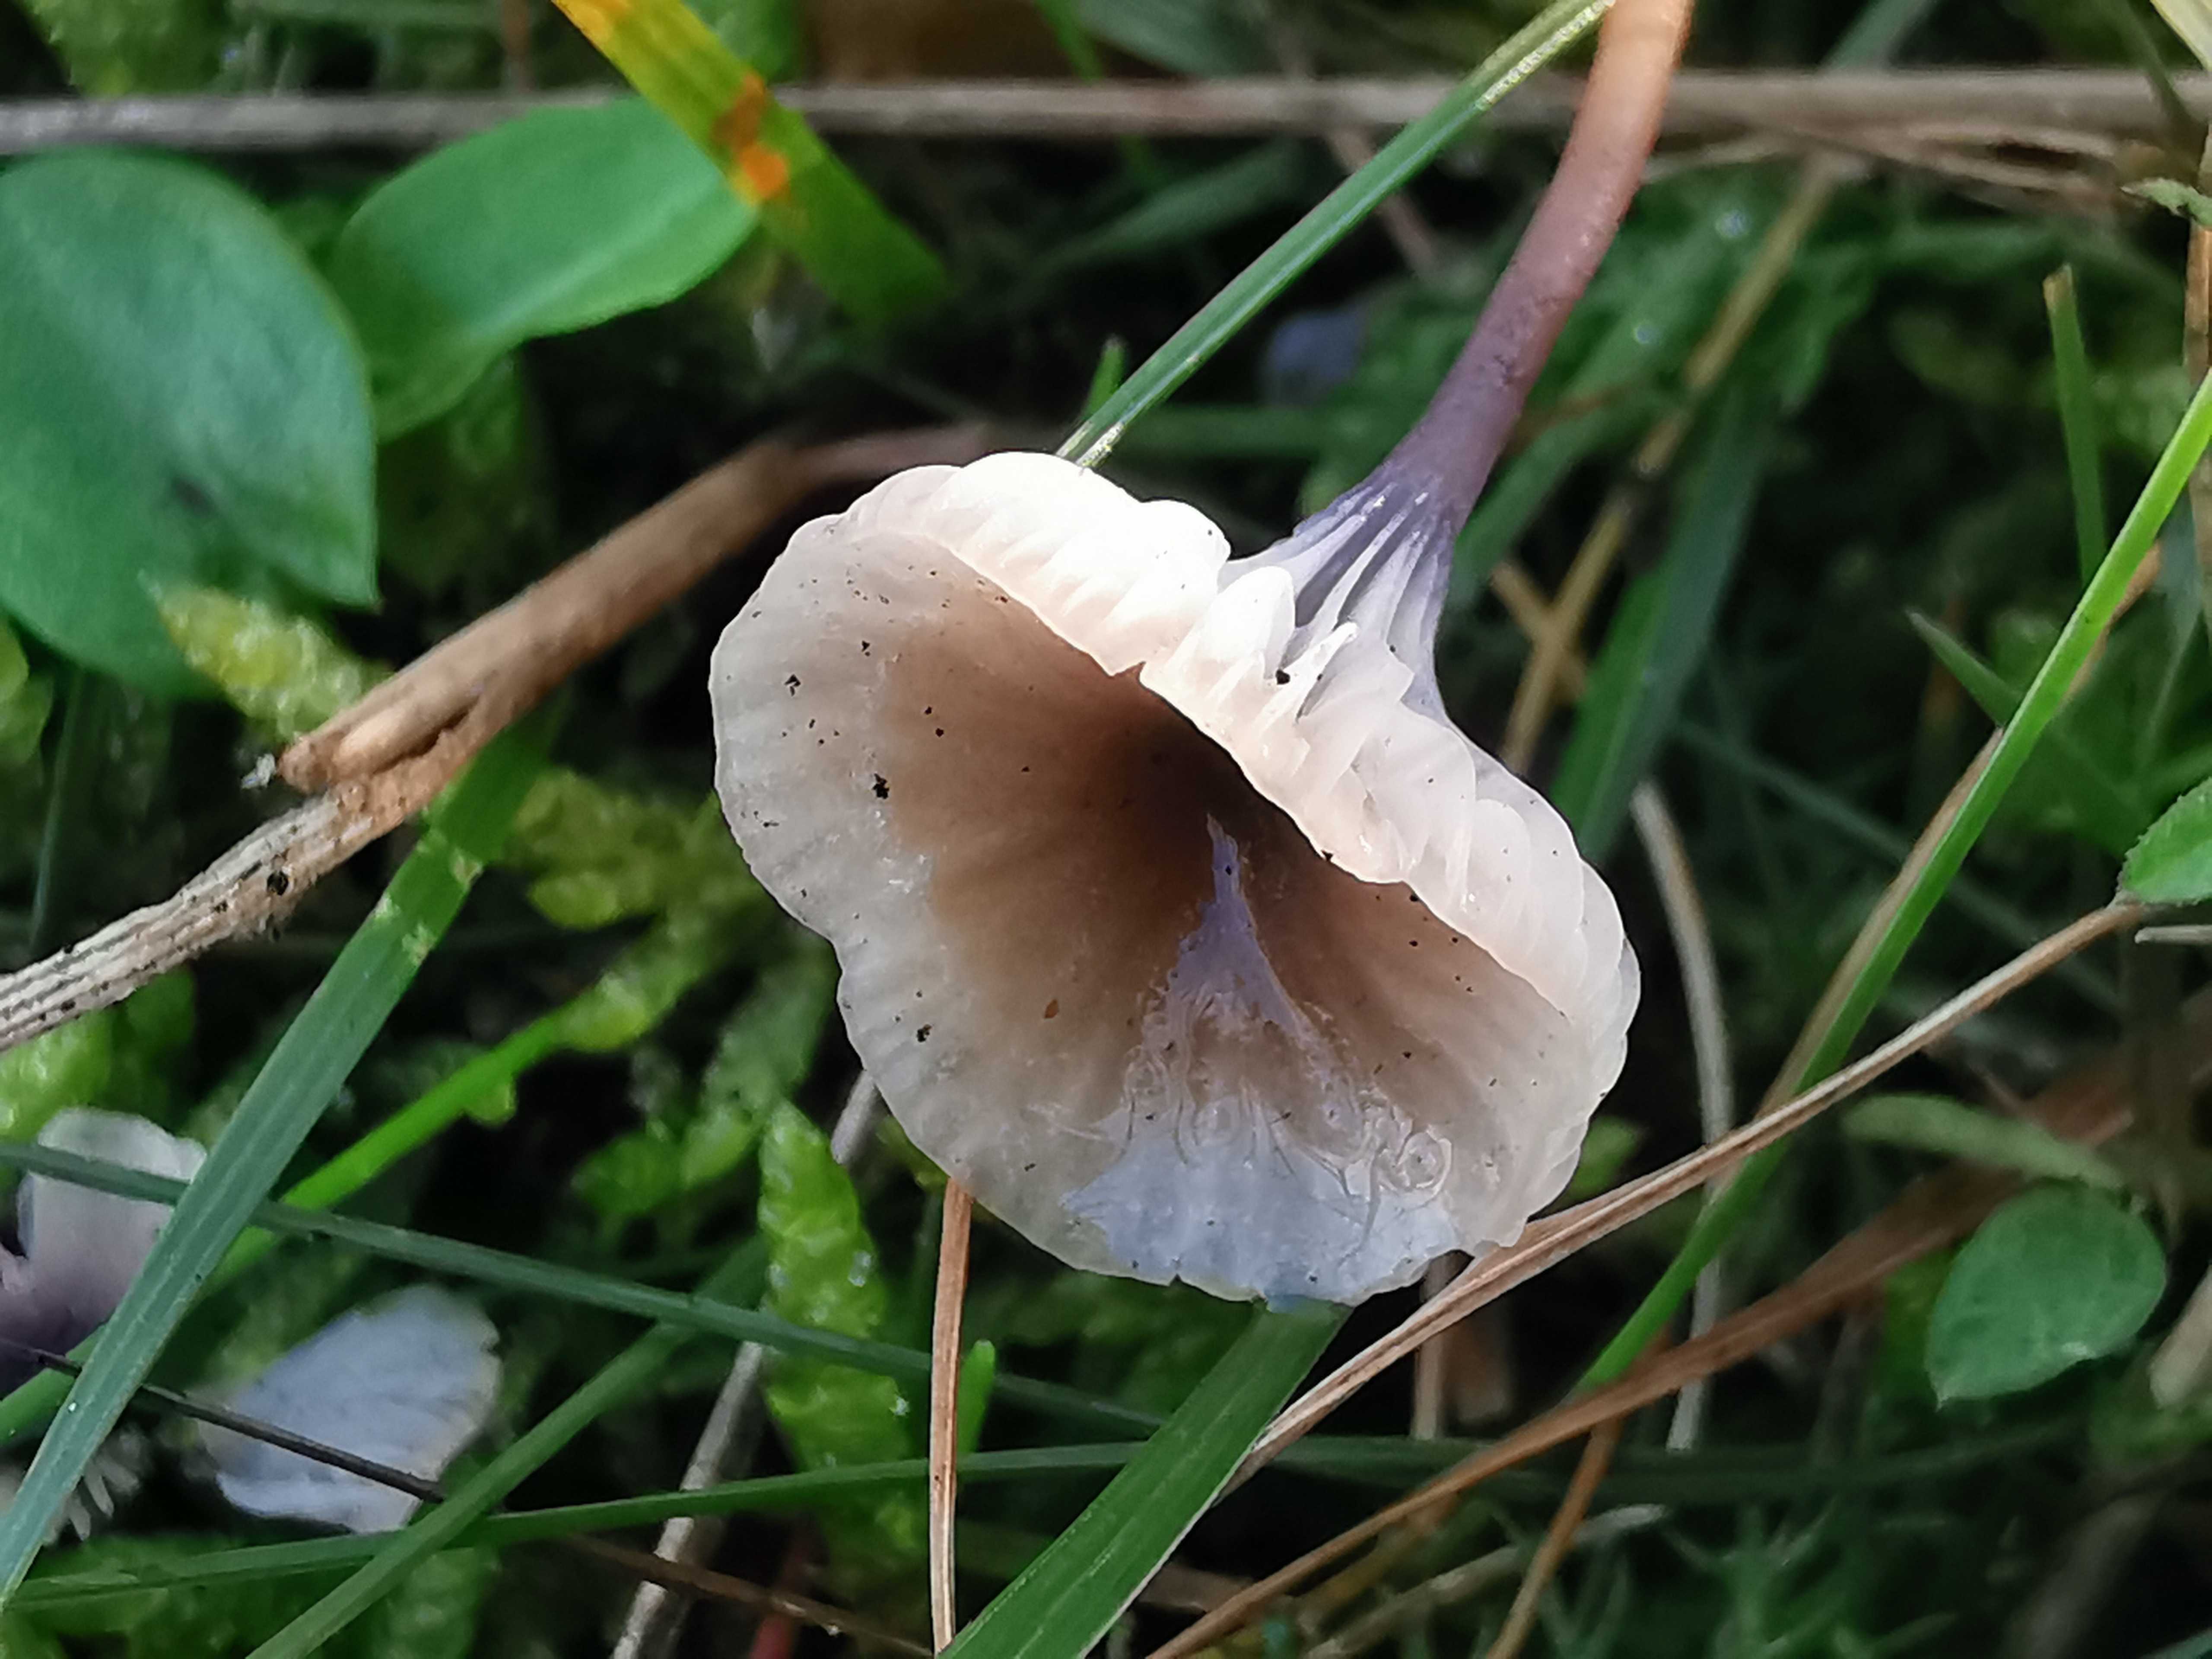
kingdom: Fungi
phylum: Basidiomycota
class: Agaricomycetes
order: Hymenochaetales
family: Rickenellaceae
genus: Rickenella
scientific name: Rickenella swartzii
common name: finstokket mosnavlehat
